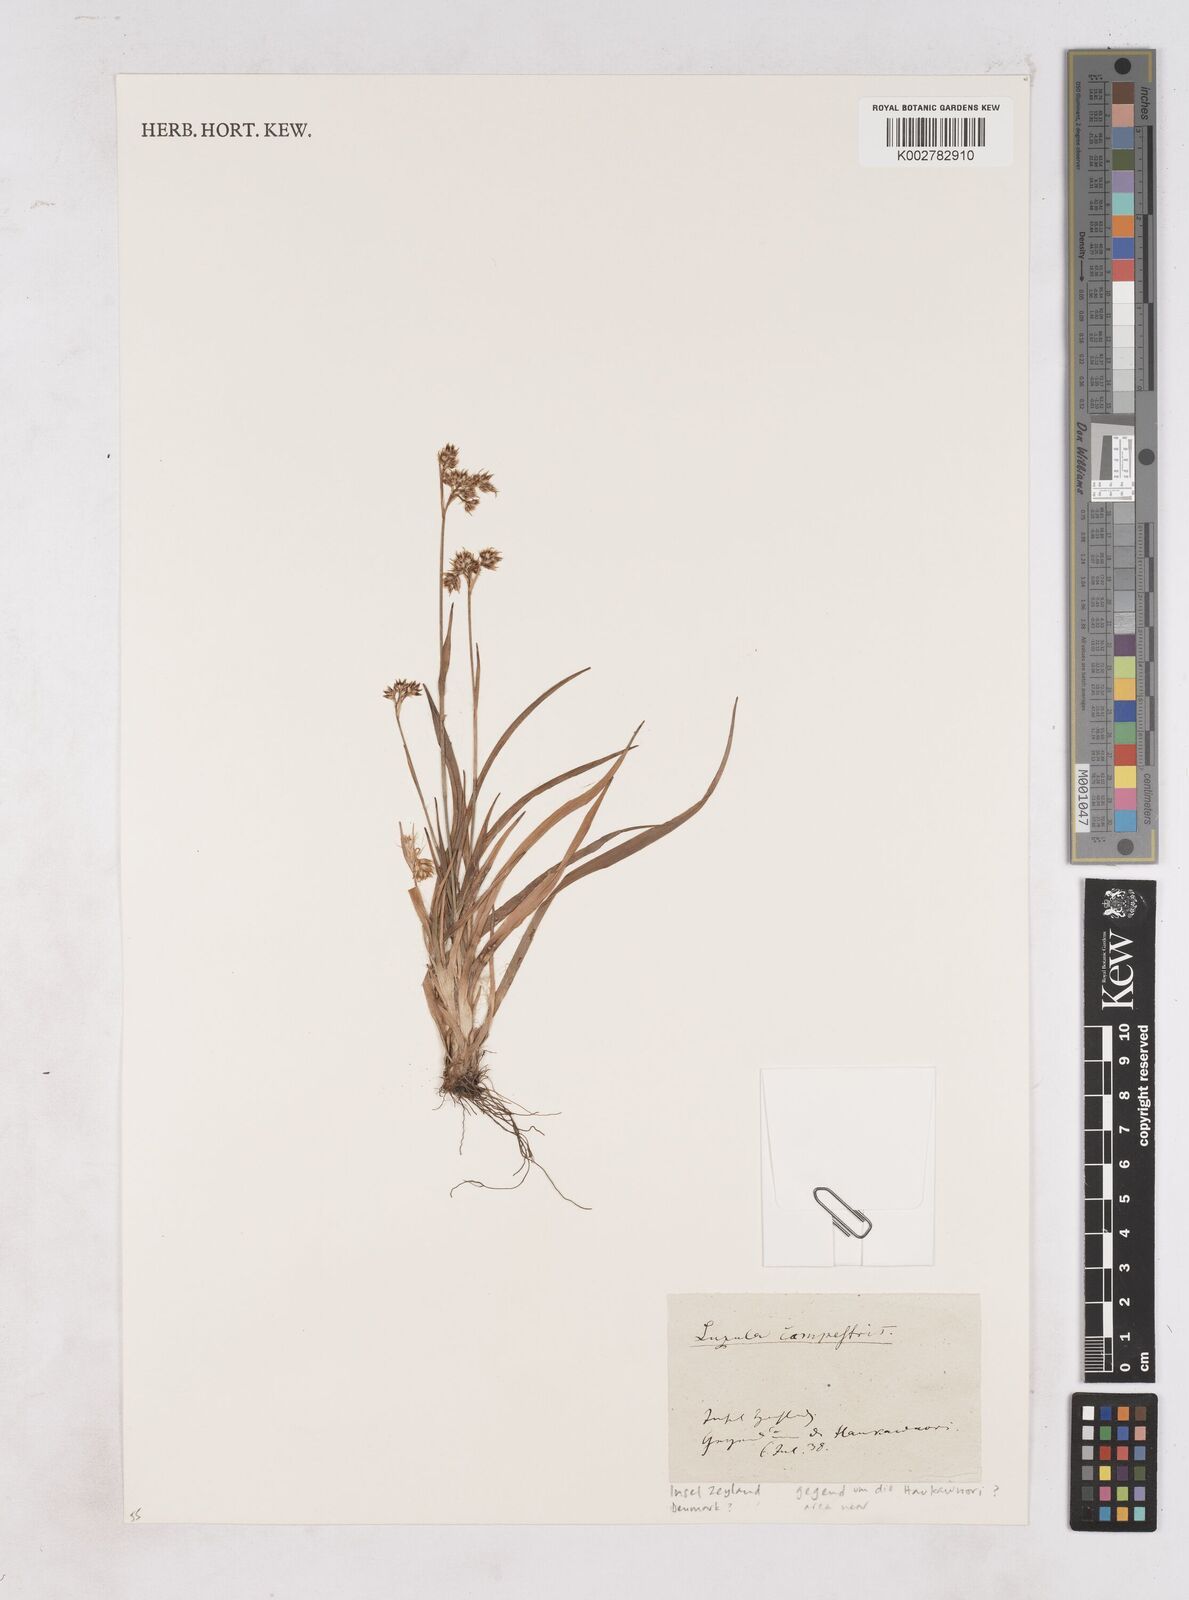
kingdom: Plantae
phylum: Tracheophyta
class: Liliopsida
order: Poales
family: Juncaceae
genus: Luzula
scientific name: Luzula campestris
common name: Field wood-rush
